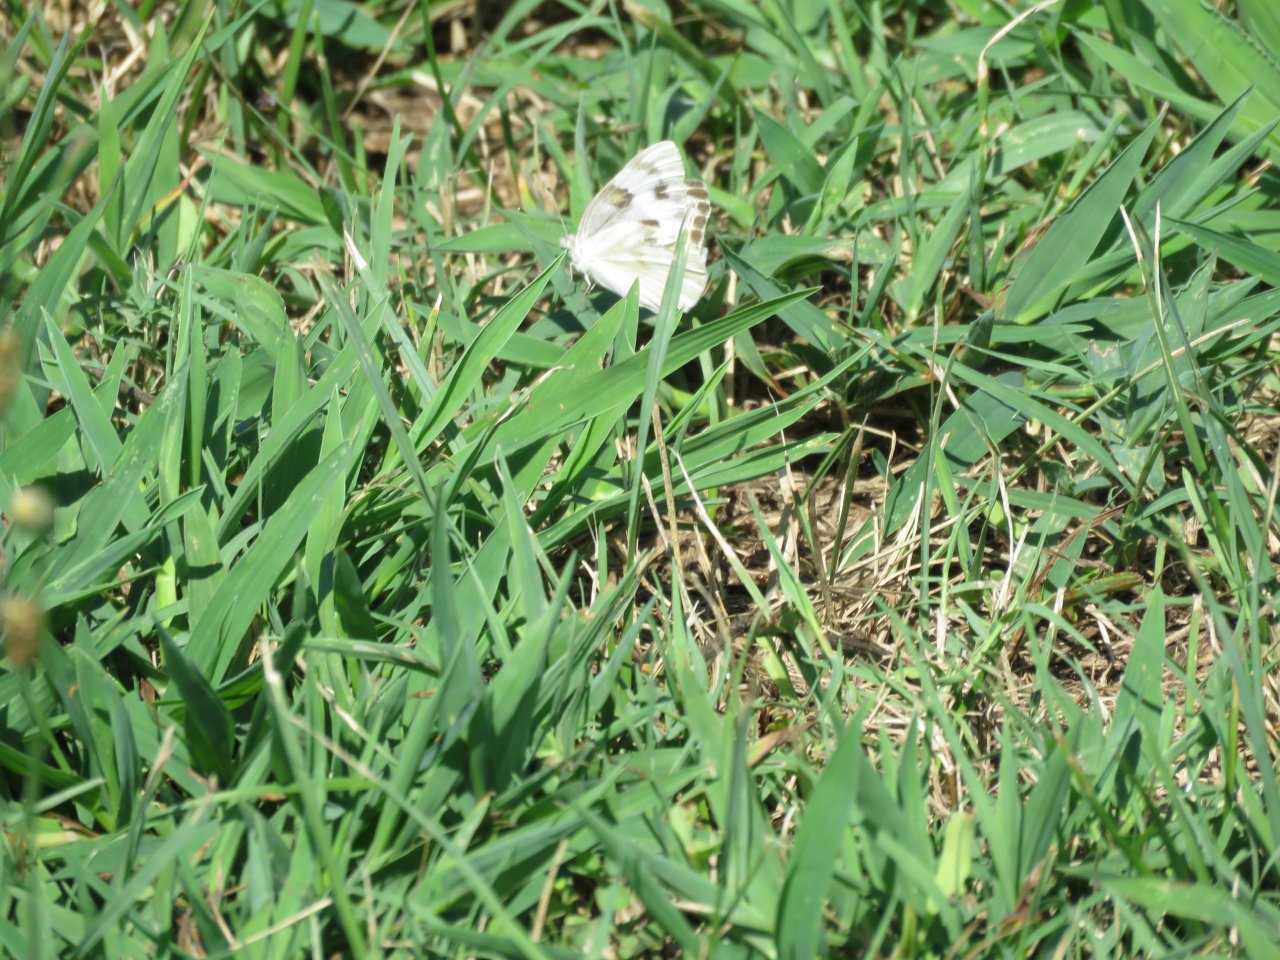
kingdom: Animalia
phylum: Arthropoda
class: Insecta
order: Lepidoptera
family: Pieridae
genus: Pontia
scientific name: Pontia protodice
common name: Checkered White
